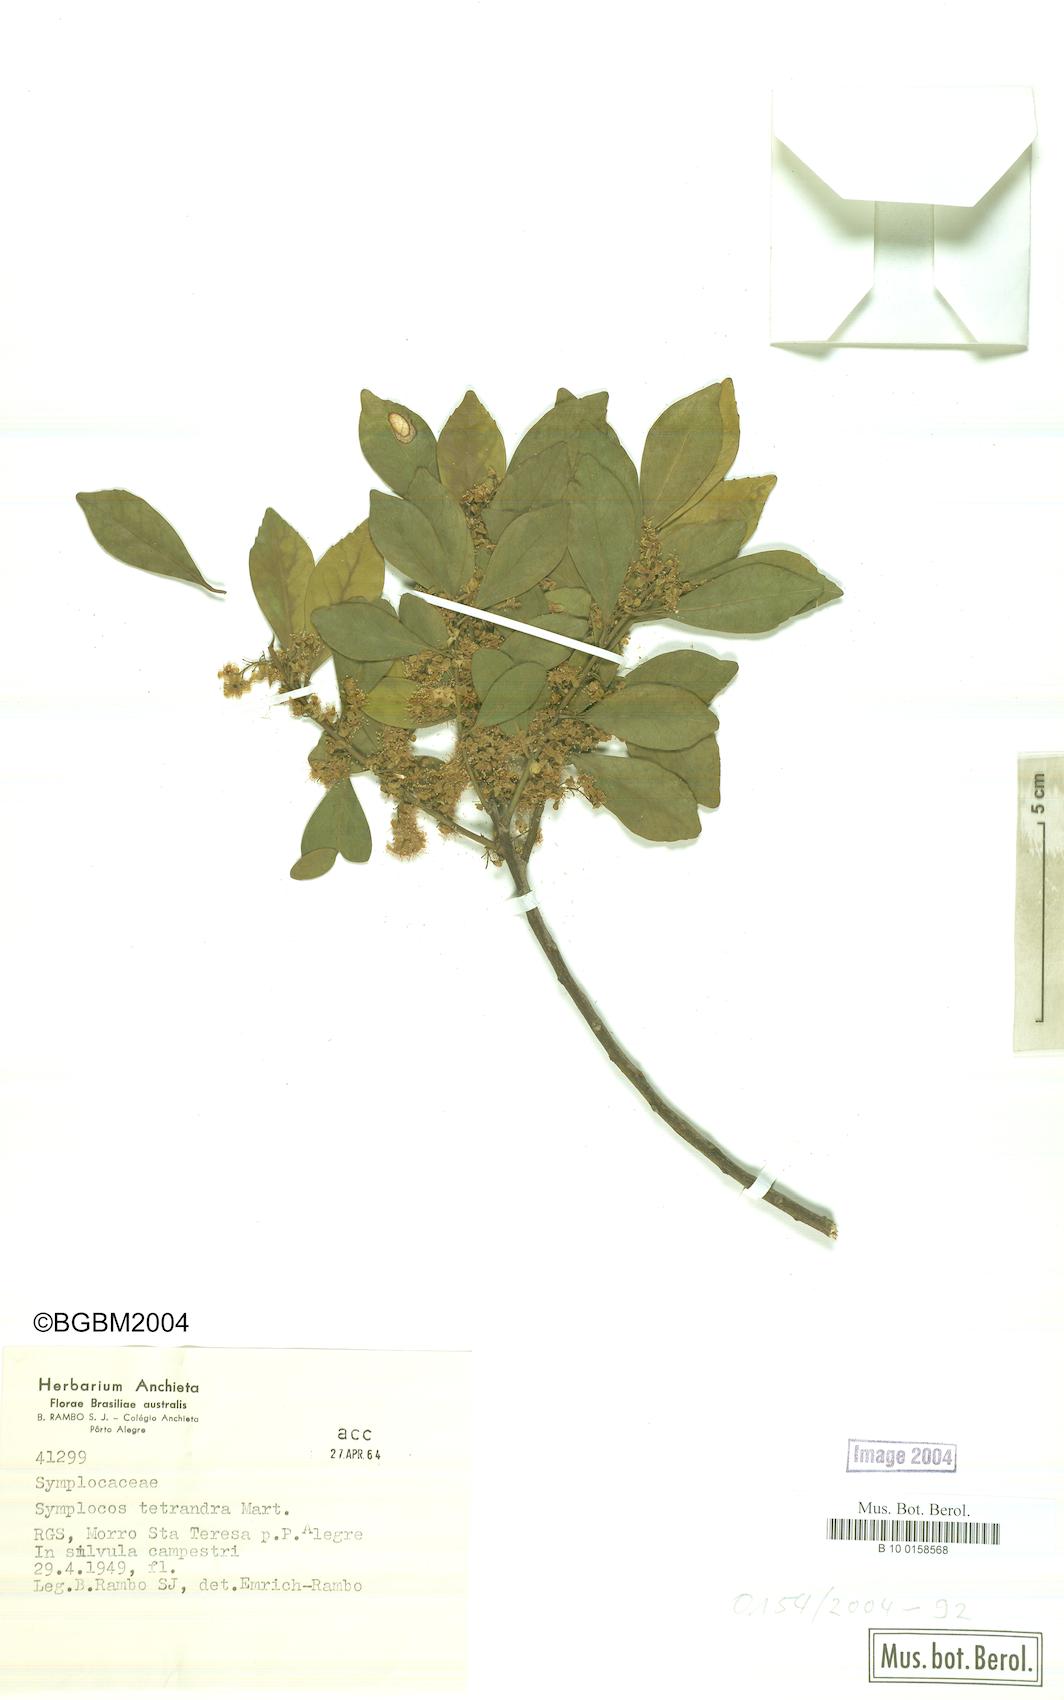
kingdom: Plantae
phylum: Tracheophyta
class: Magnoliopsida
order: Ericales
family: Symplocaceae
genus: Symplocos
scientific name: Symplocos tetrandra
